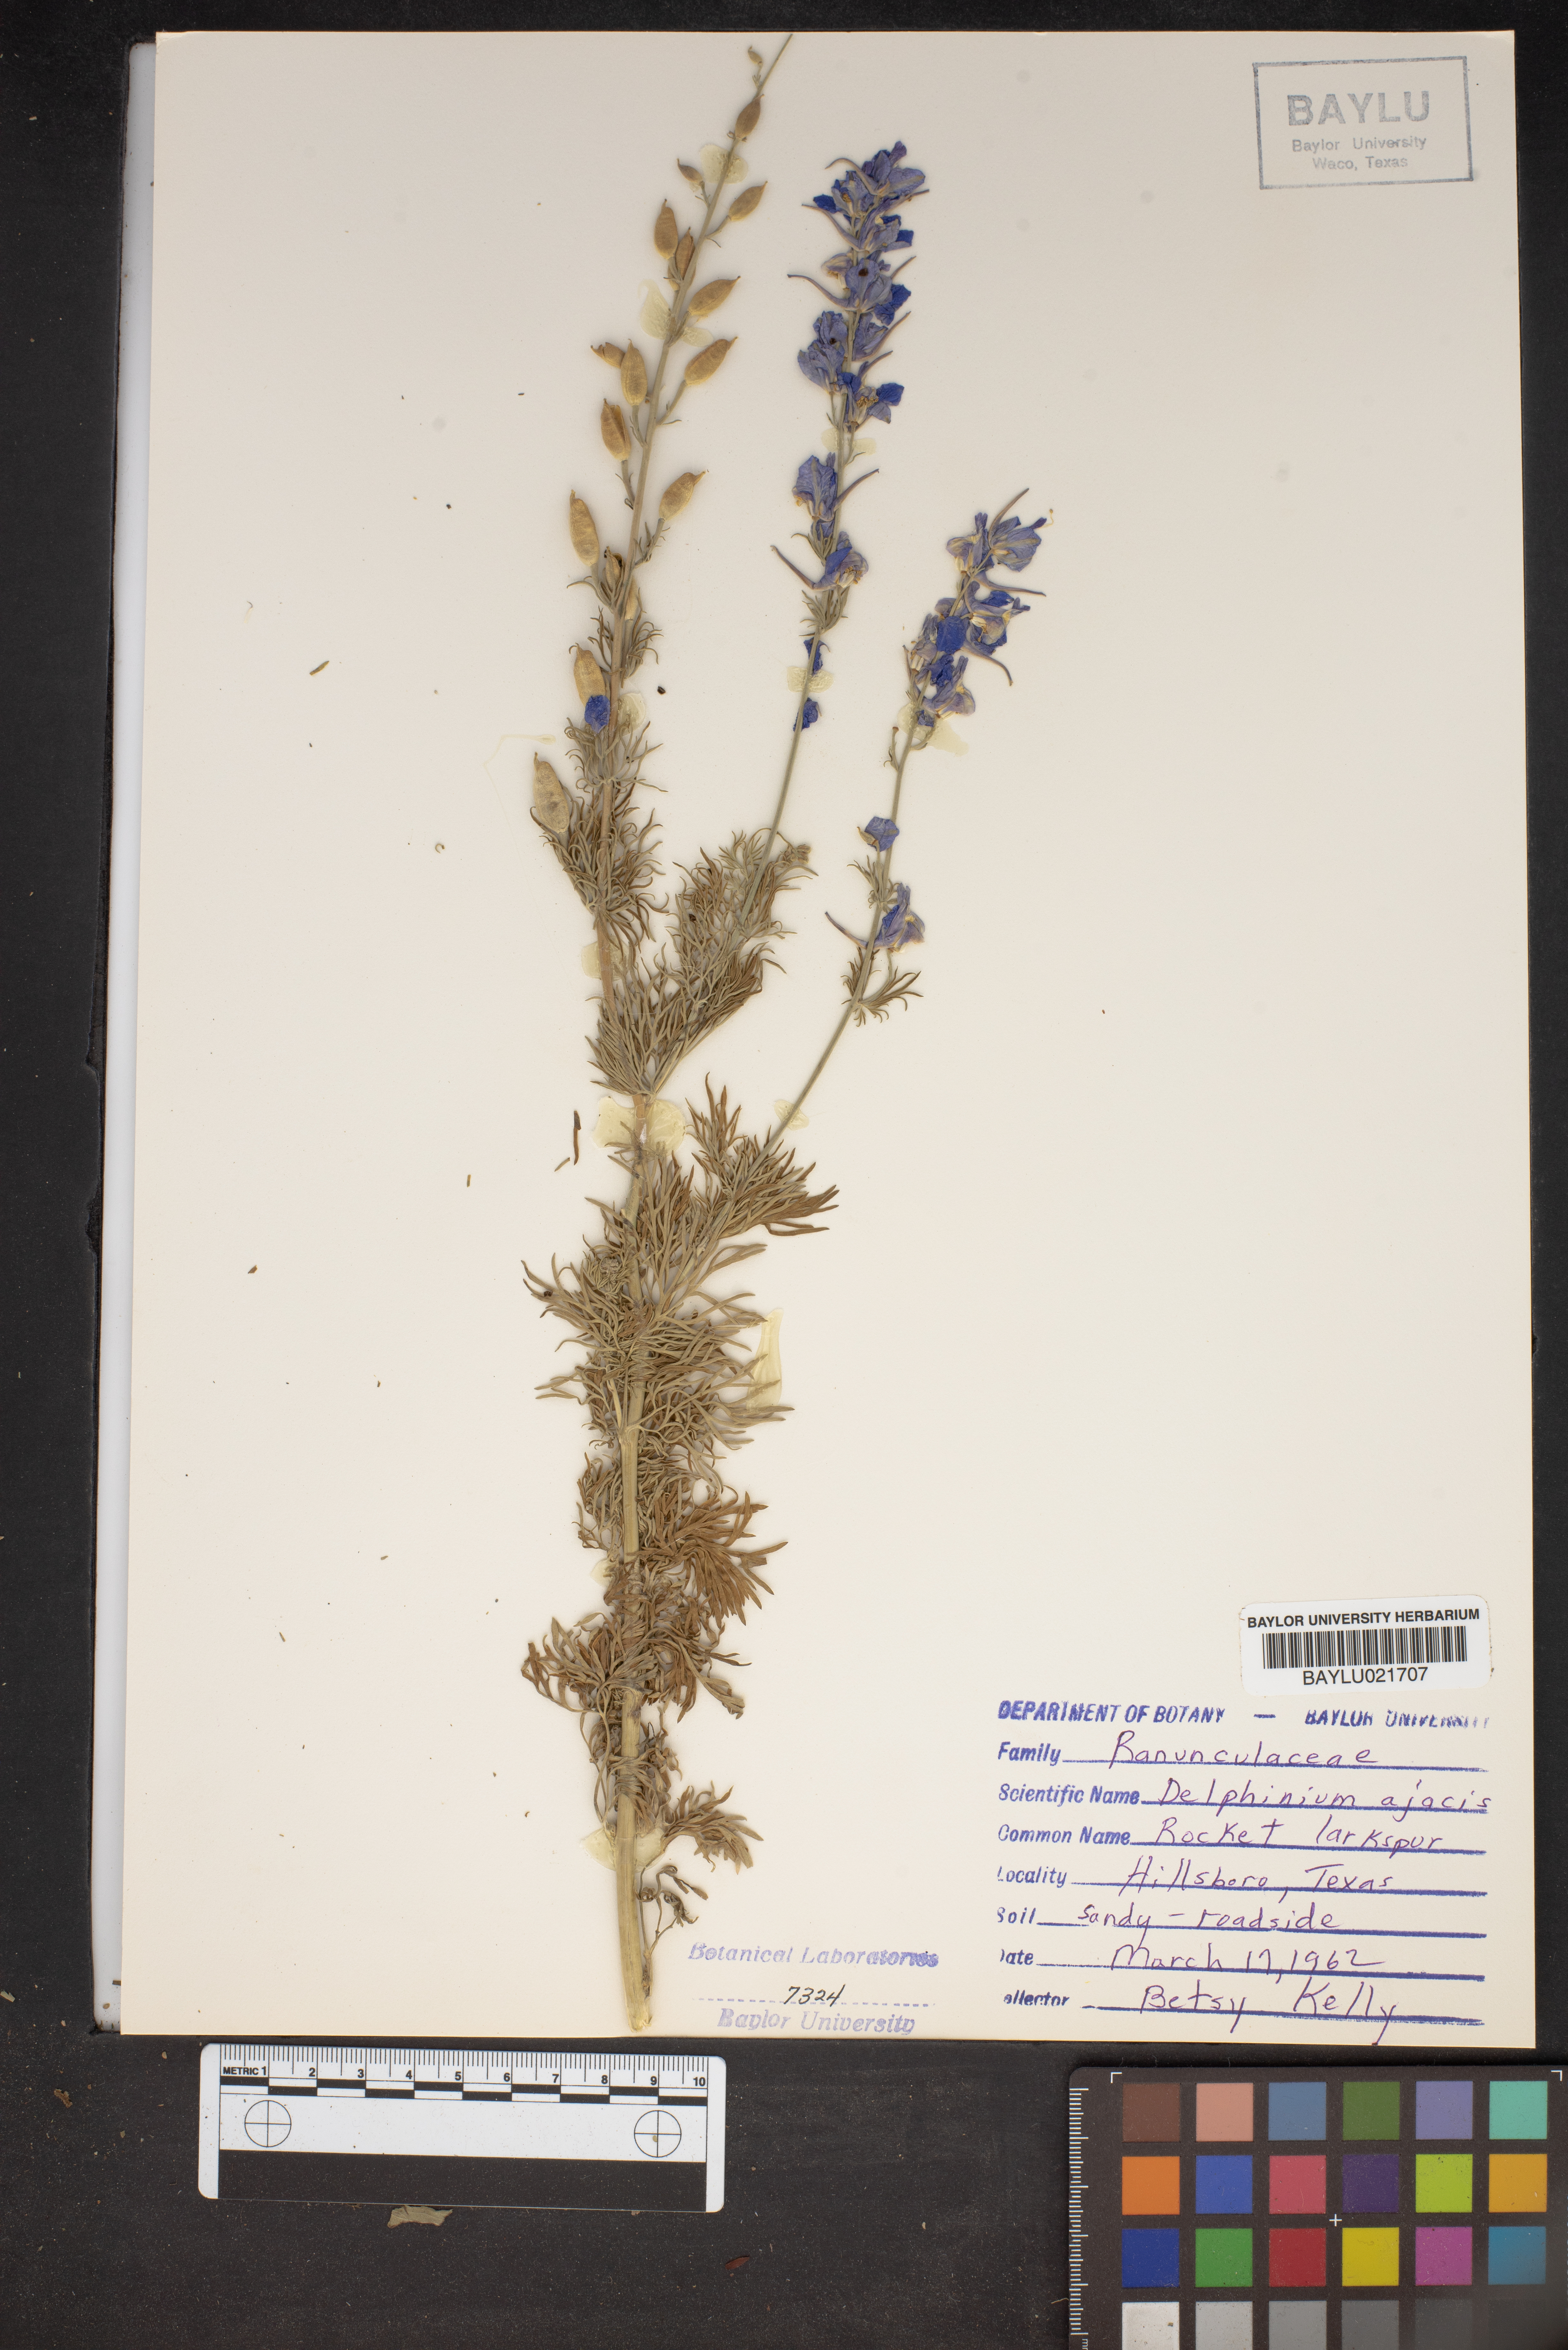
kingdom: Plantae
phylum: Tracheophyta
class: Magnoliopsida
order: Ranunculales
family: Ranunculaceae
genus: Delphinium
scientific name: Delphinium ajacis
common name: Doubtful knight's-spur
